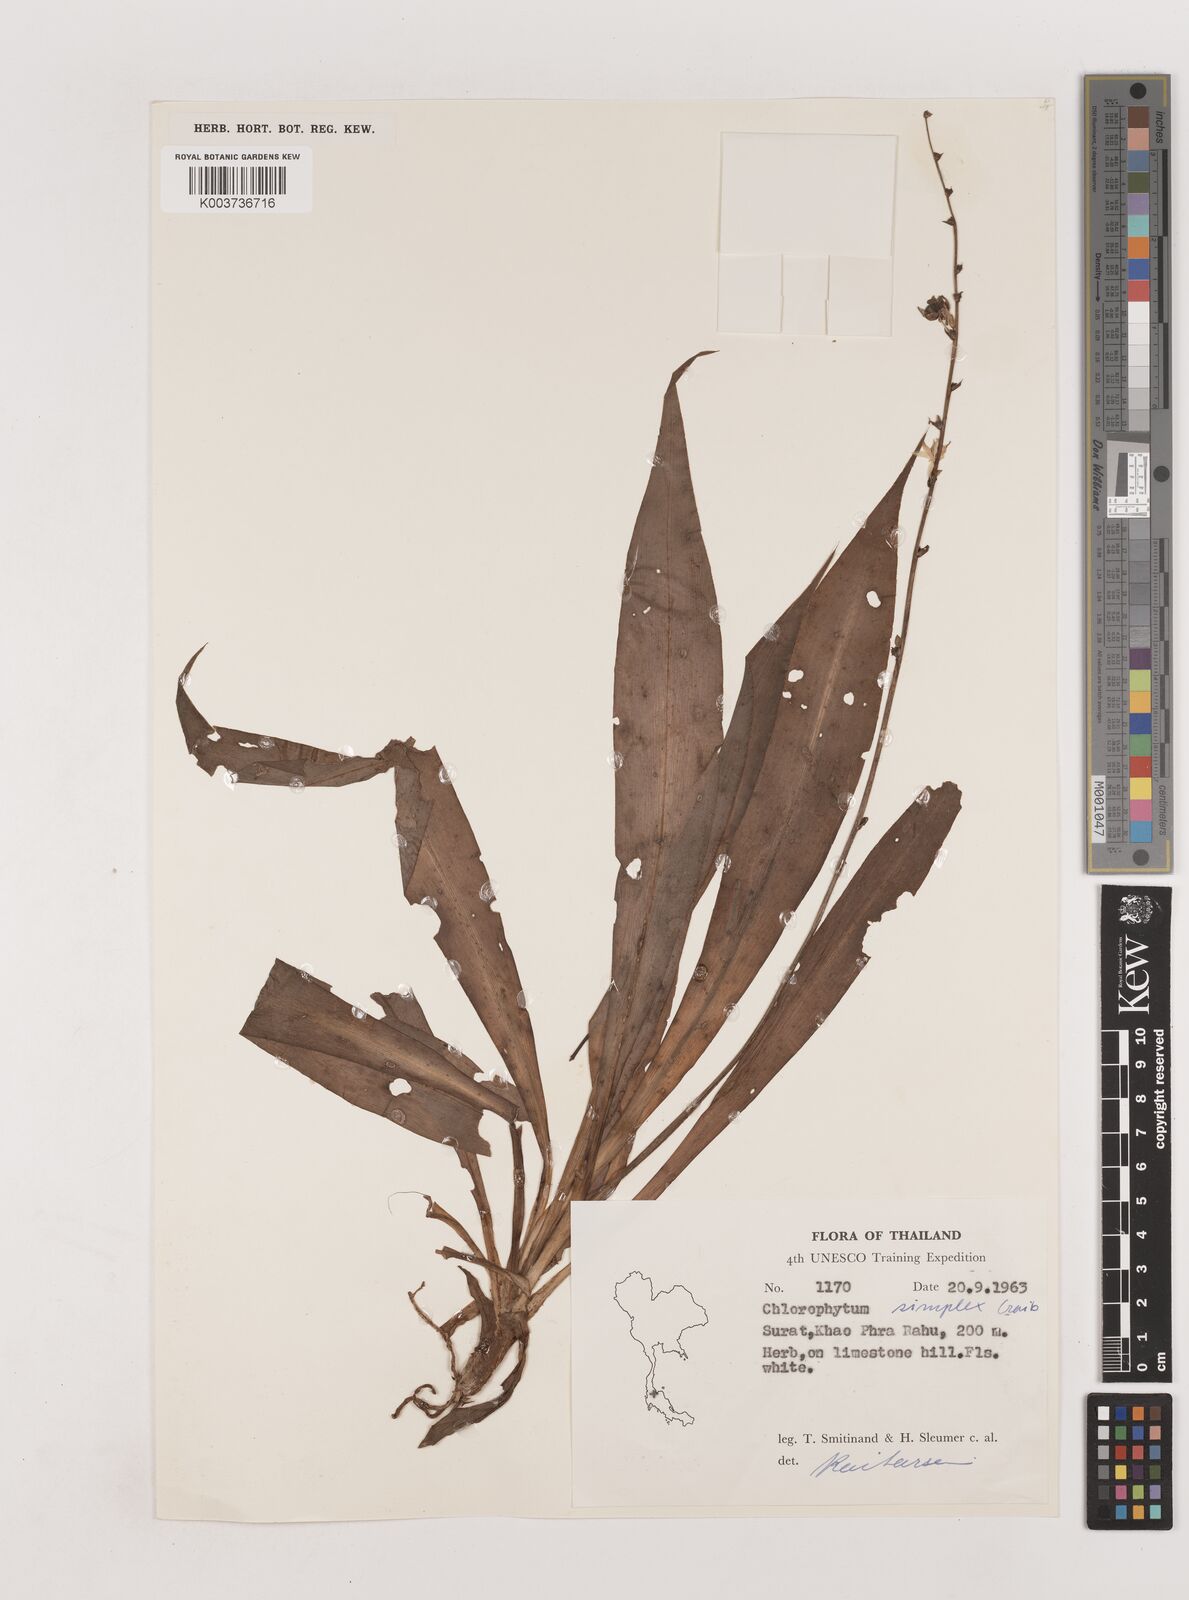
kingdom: Plantae
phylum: Tracheophyta
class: Liliopsida
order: Asparagales
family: Asparagaceae
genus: Chlorophytum
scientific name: Chlorophytum simplex
